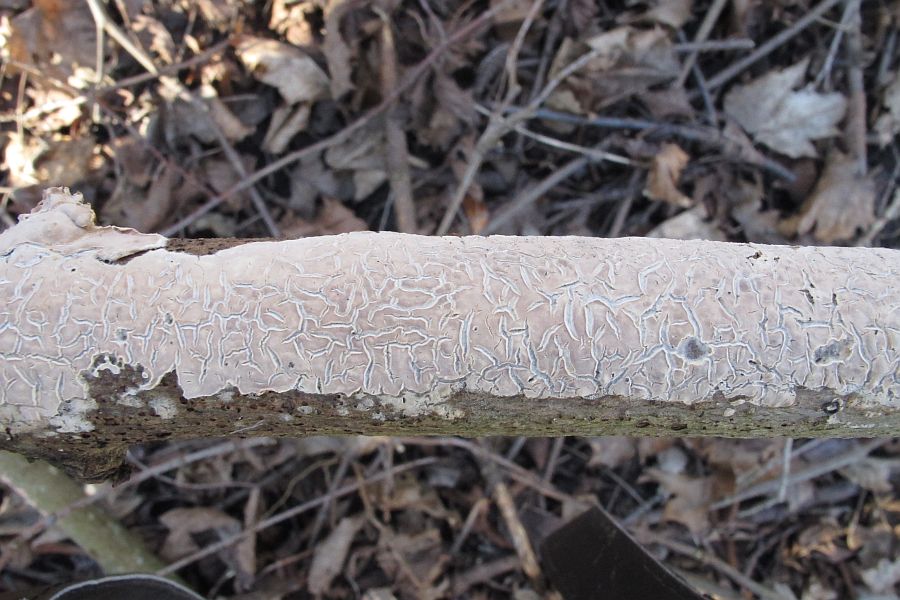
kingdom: Fungi
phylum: Basidiomycota
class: Agaricomycetes
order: Agaricales
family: Physalacriaceae
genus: Cylindrobasidium
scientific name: Cylindrobasidium evolvens
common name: sprækkehinde
